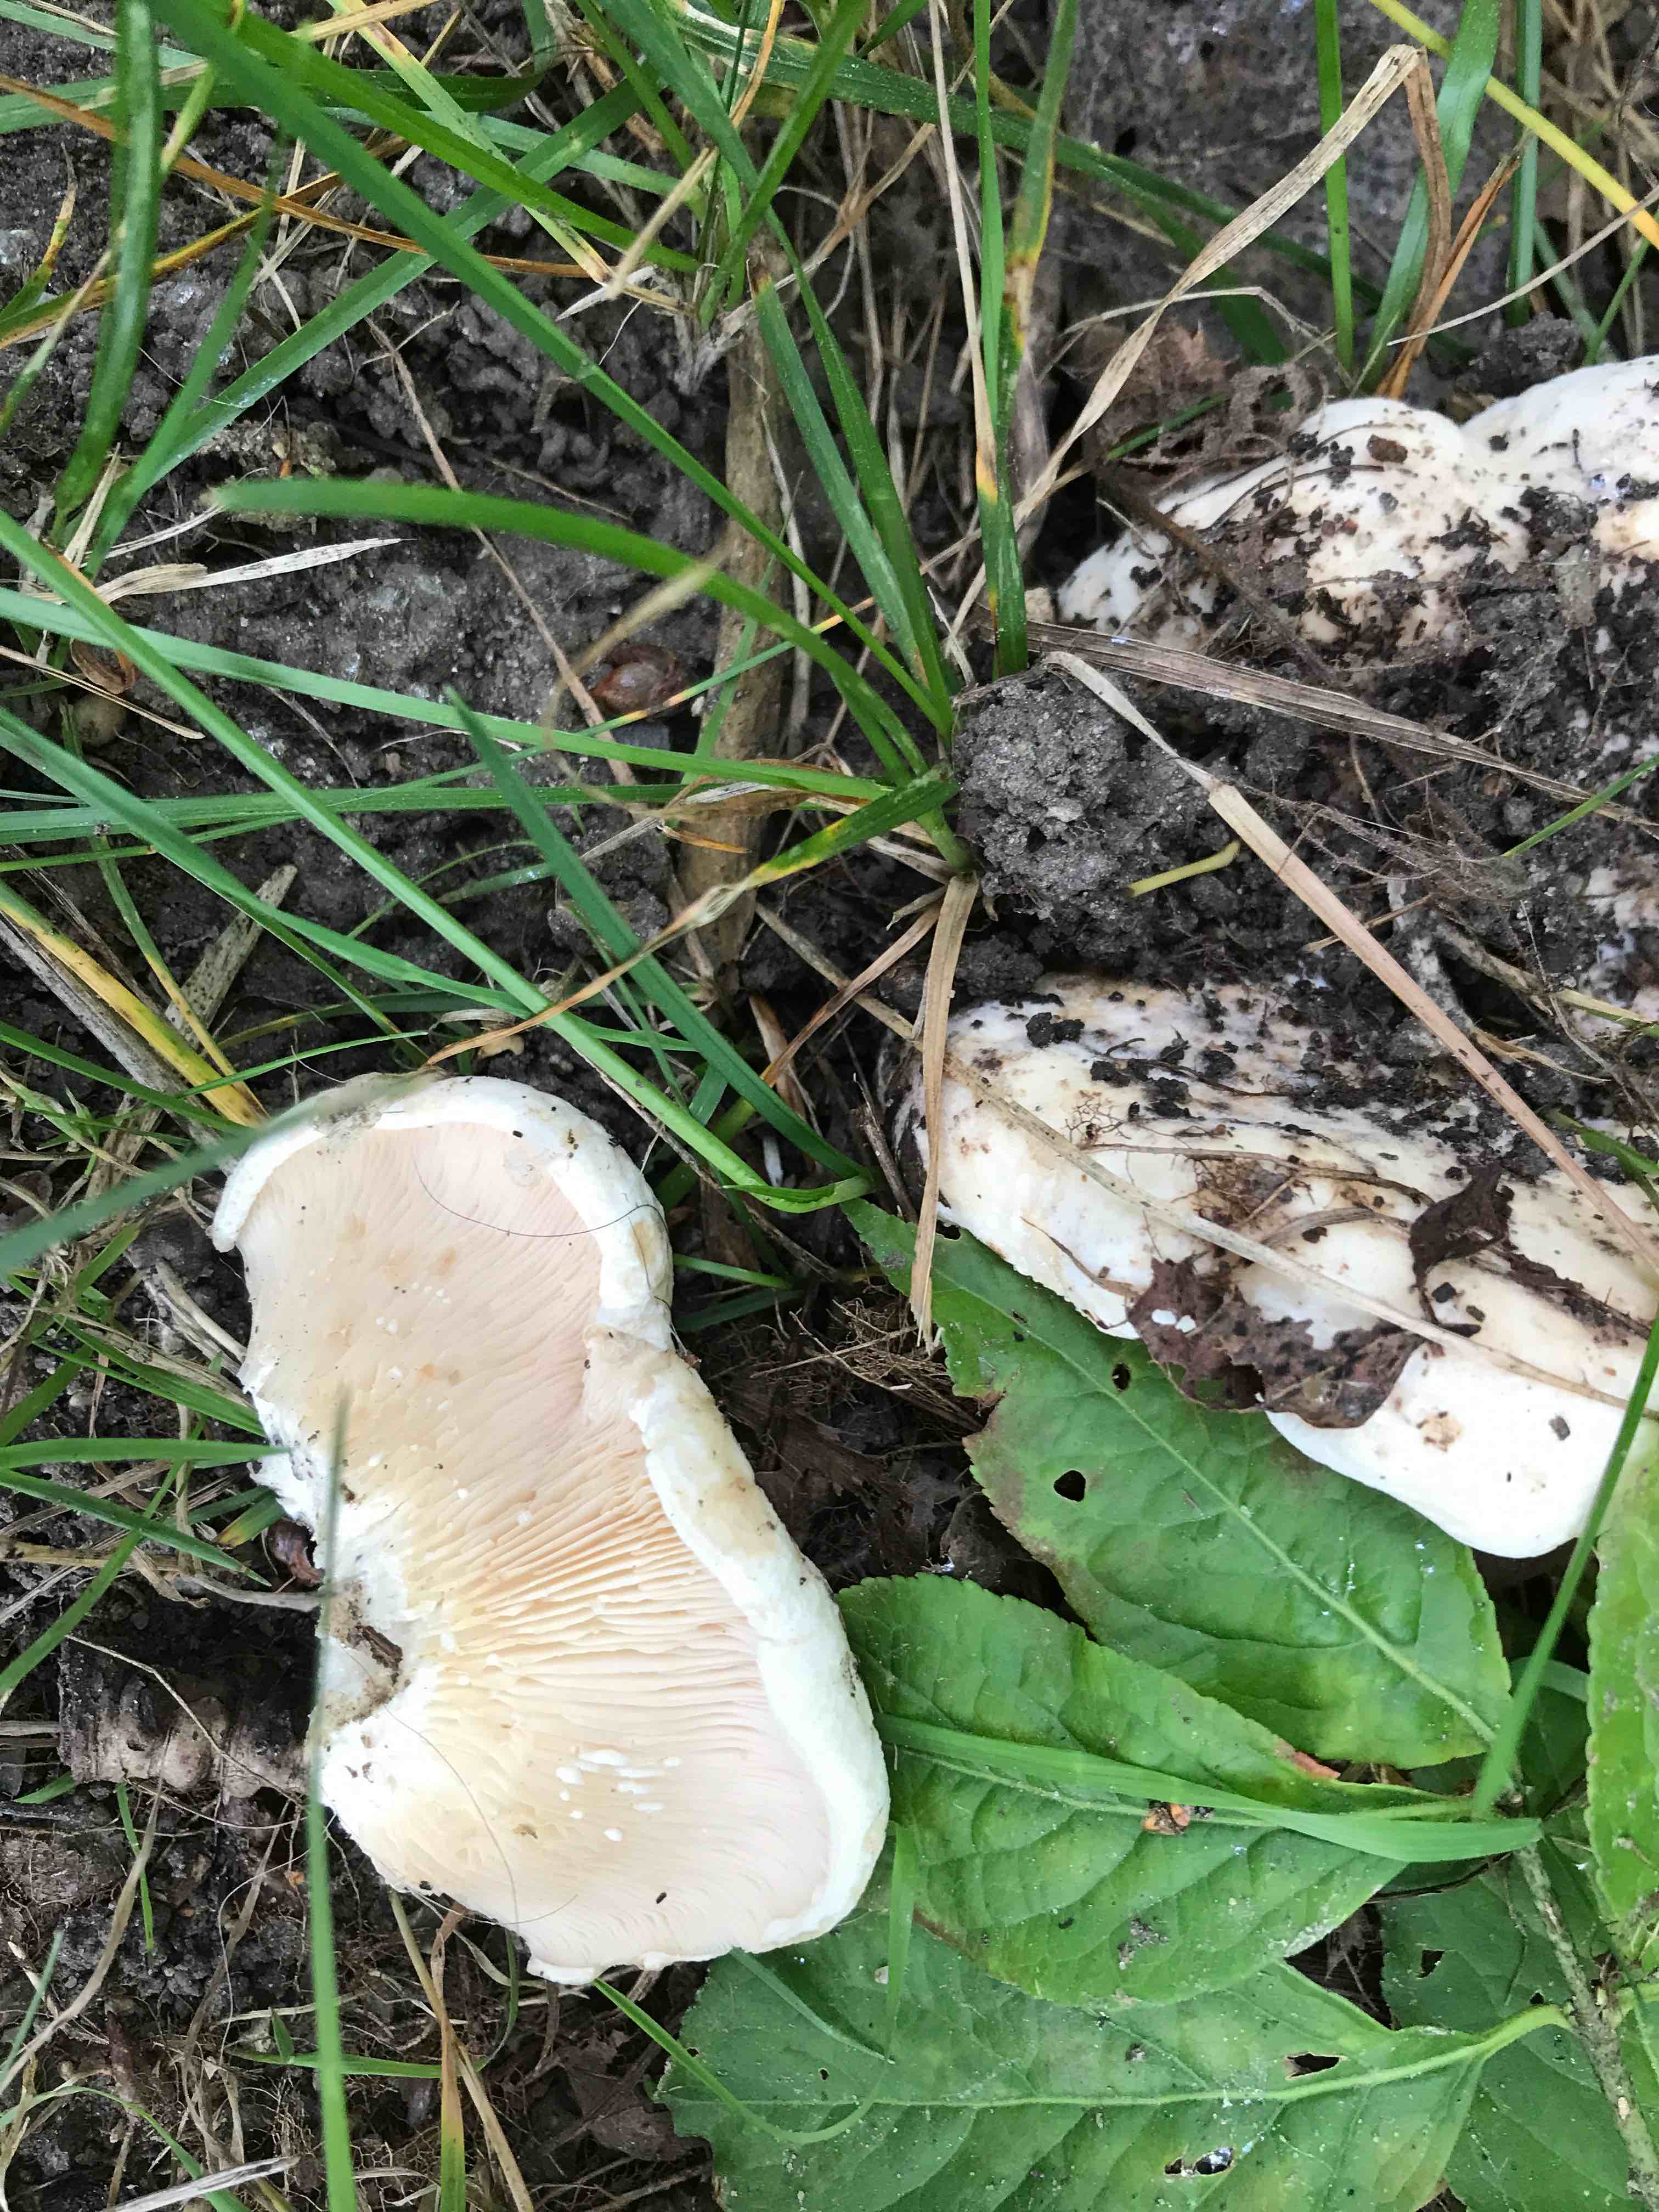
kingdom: Fungi
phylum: Basidiomycota
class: Agaricomycetes
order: Russulales
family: Russulaceae
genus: Lactarius
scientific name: Lactarius pubescens
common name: dunet mælkehat
